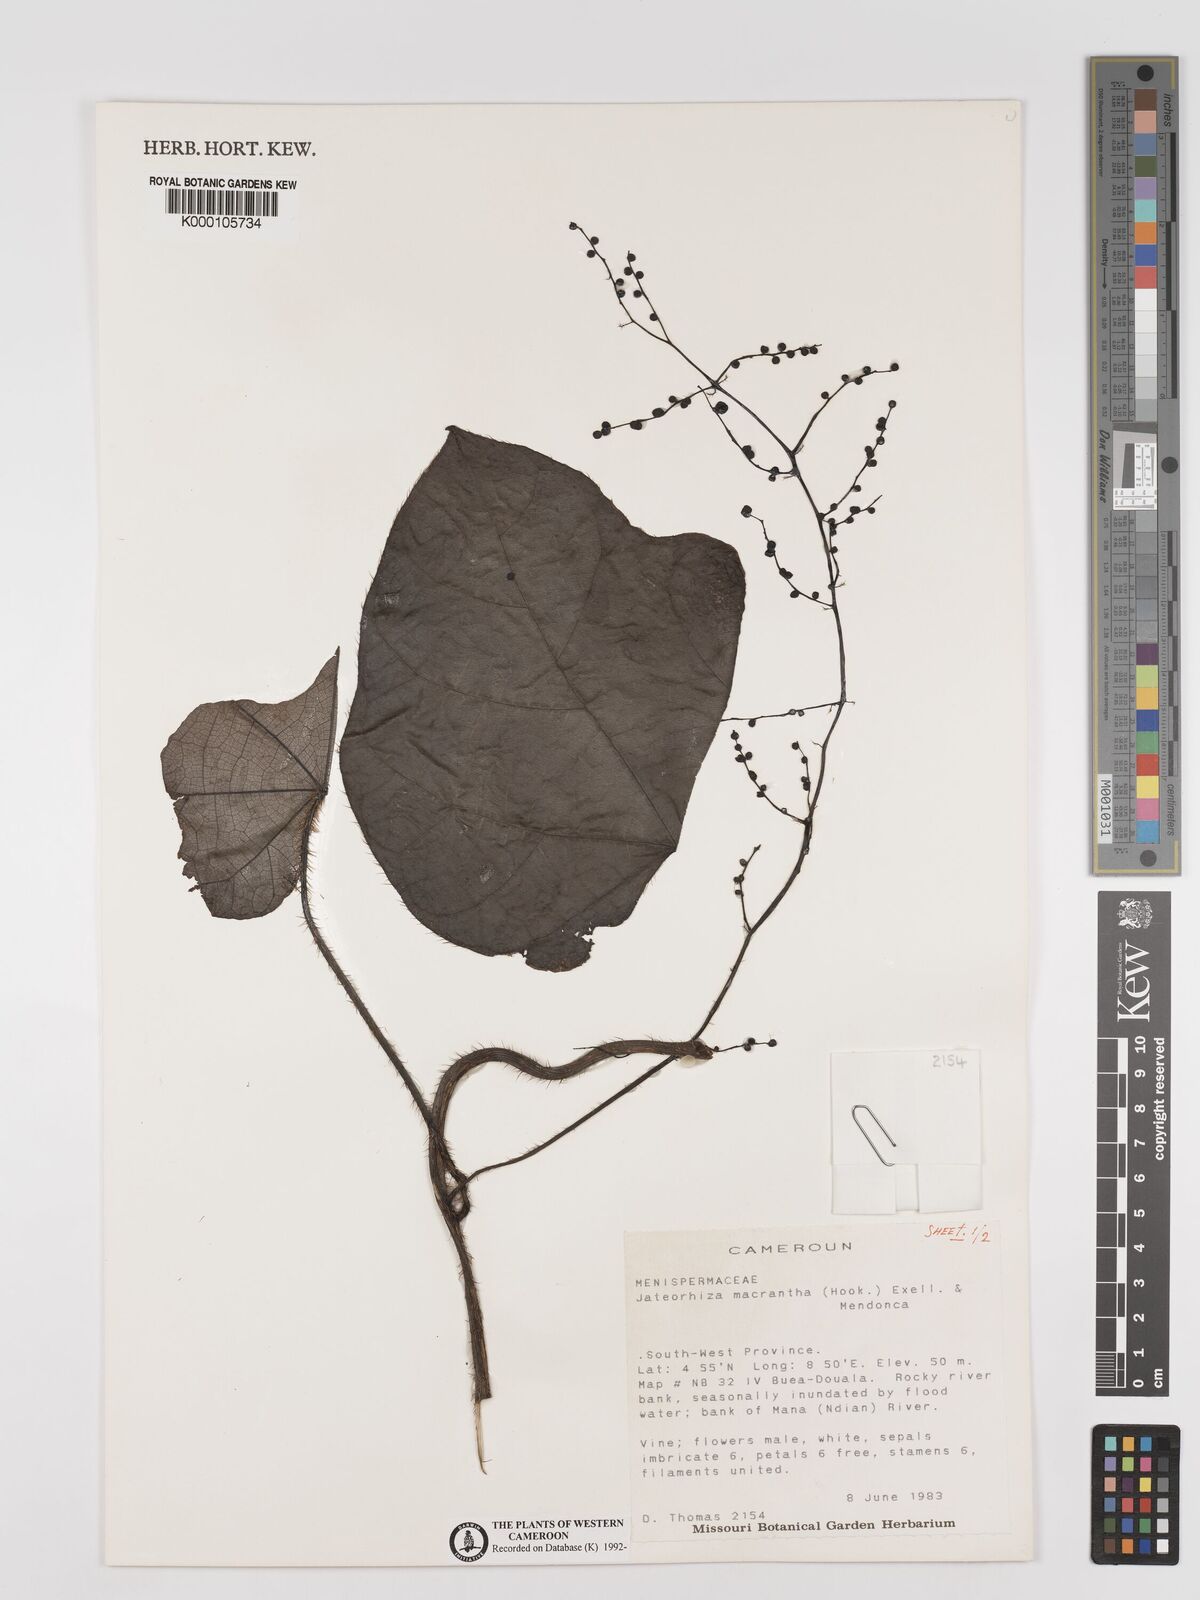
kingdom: Plantae
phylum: Tracheophyta
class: Magnoliopsida
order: Ranunculales
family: Menispermaceae
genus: Jateorhiza
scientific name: Jateorhiza
